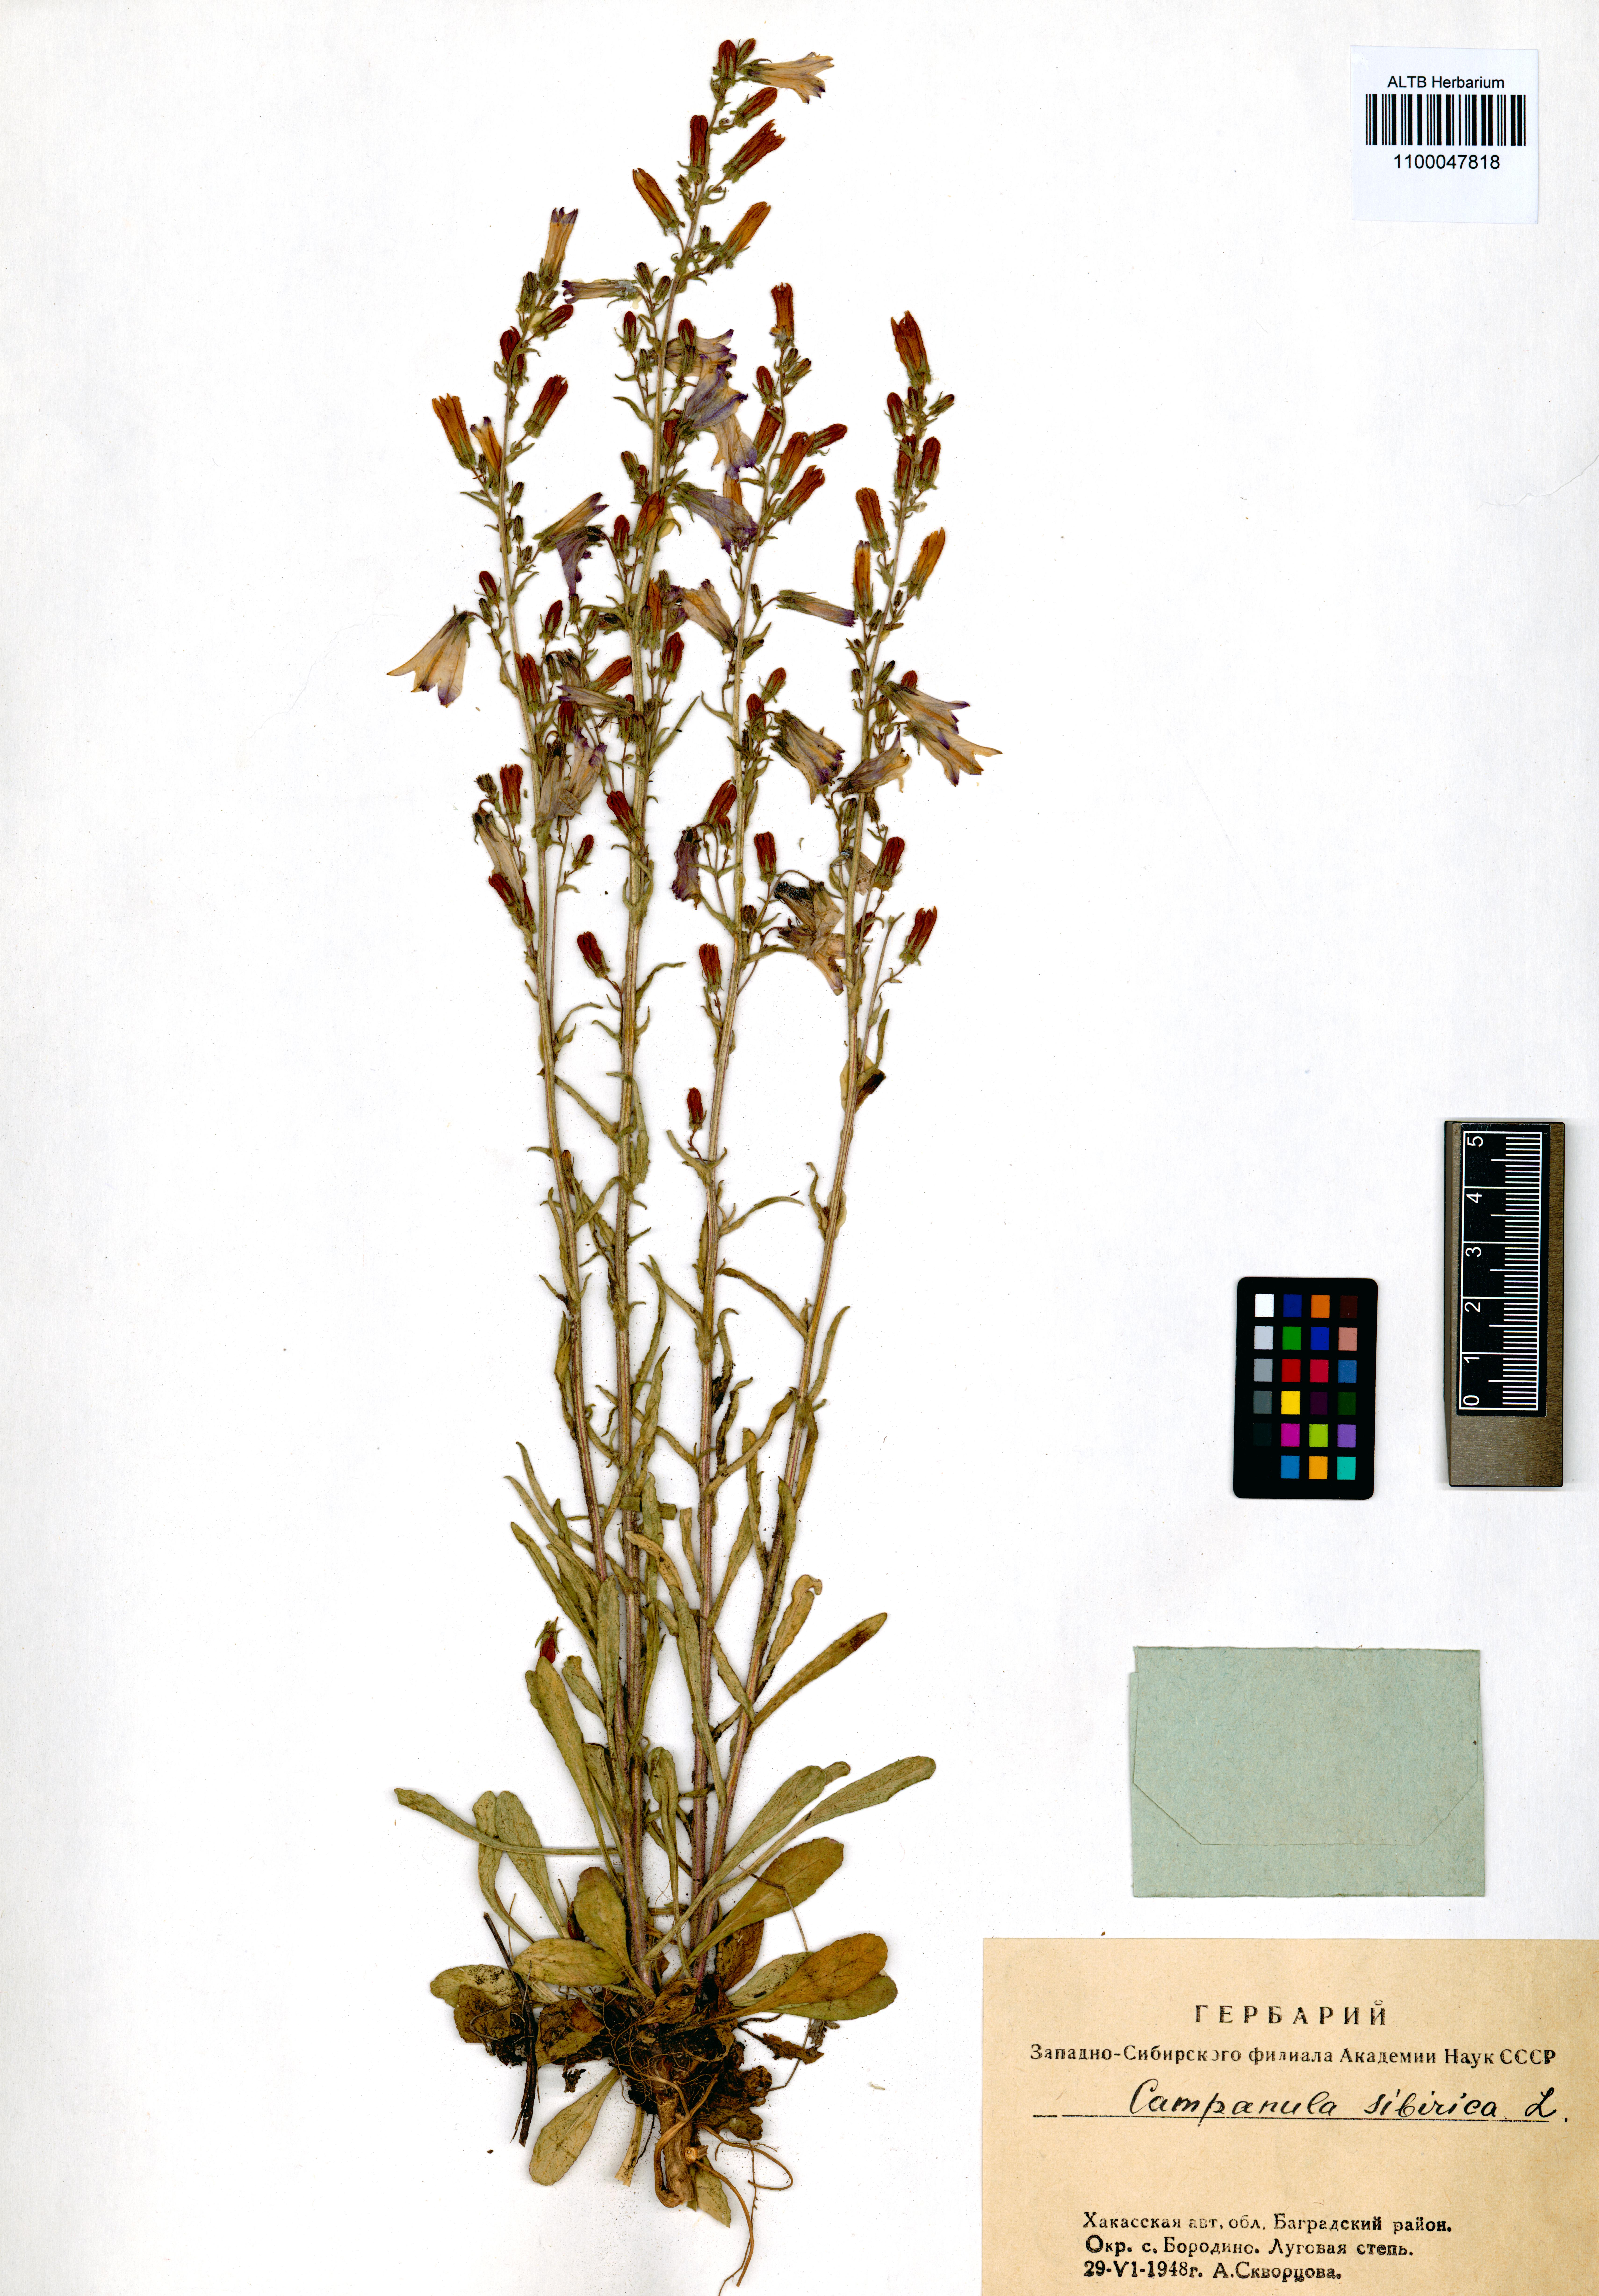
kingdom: Plantae
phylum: Tracheophyta
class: Magnoliopsida
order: Asterales
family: Campanulaceae
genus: Campanula
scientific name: Campanula sibirica
